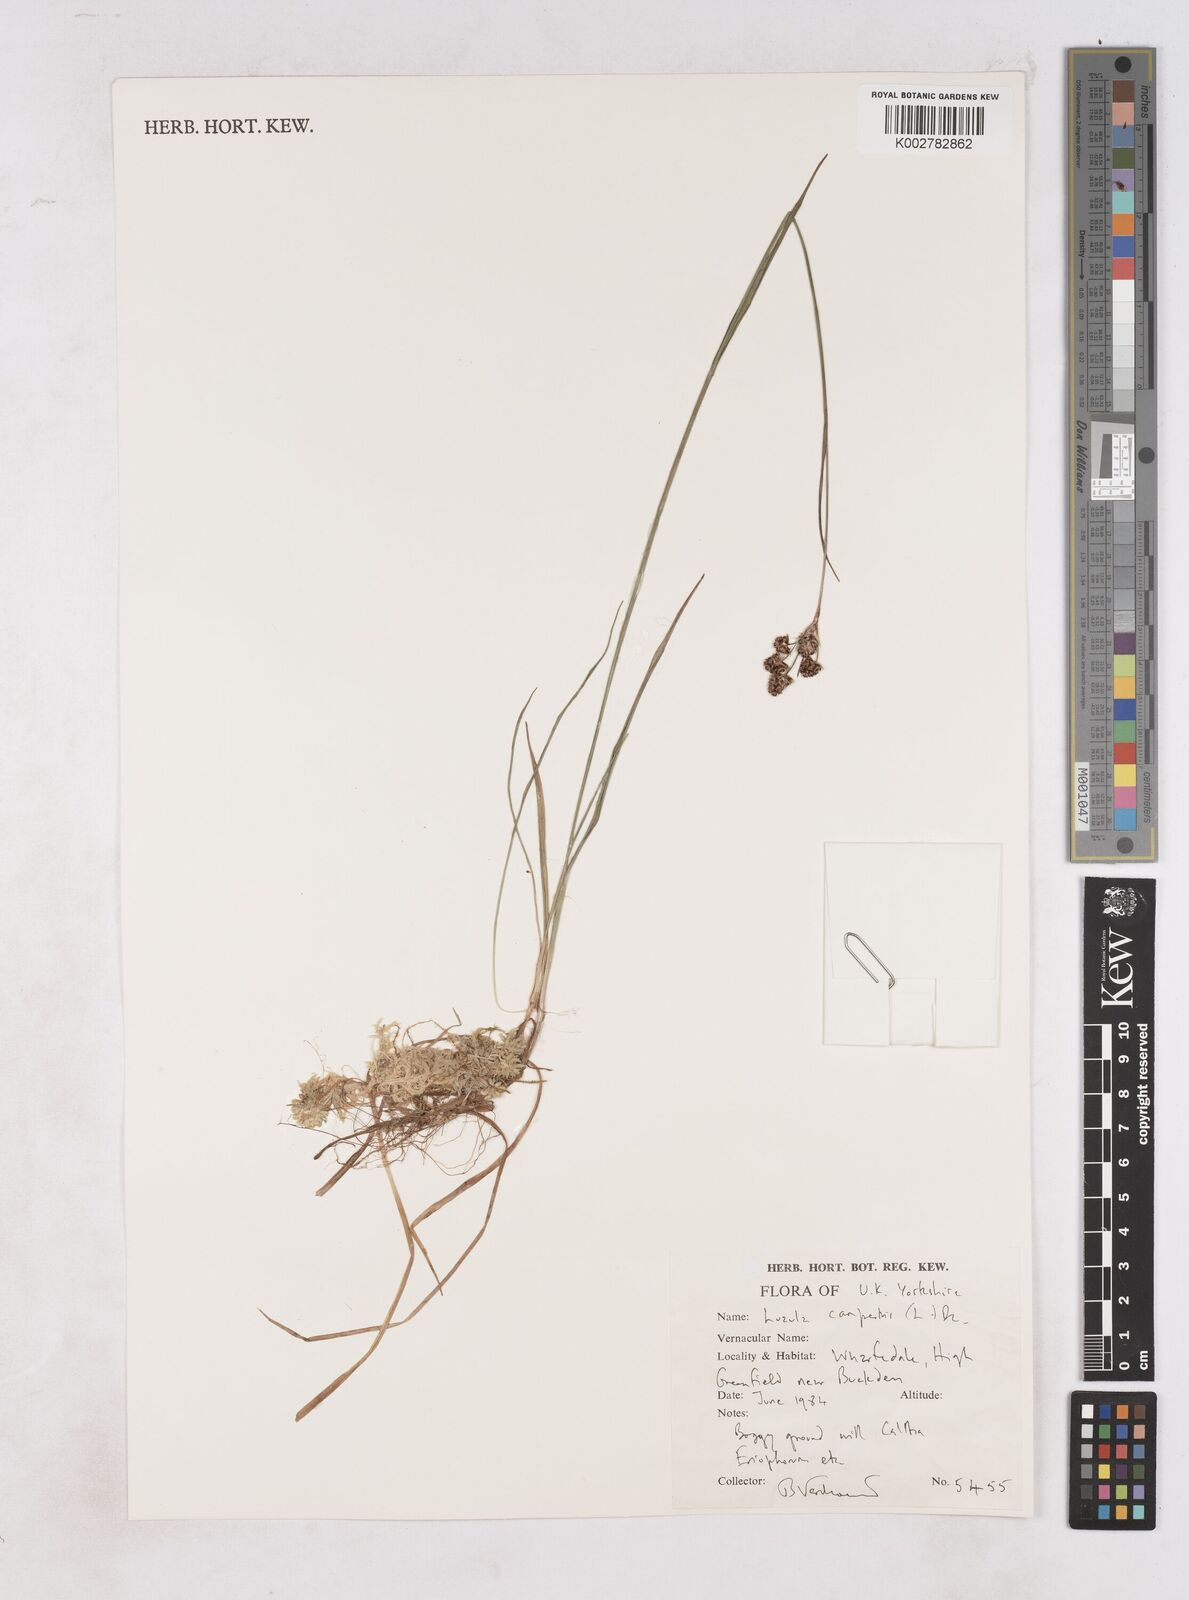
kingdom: Plantae
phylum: Tracheophyta
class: Liliopsida
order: Poales
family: Juncaceae
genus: Luzula
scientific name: Luzula campestris
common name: Field wood-rush
